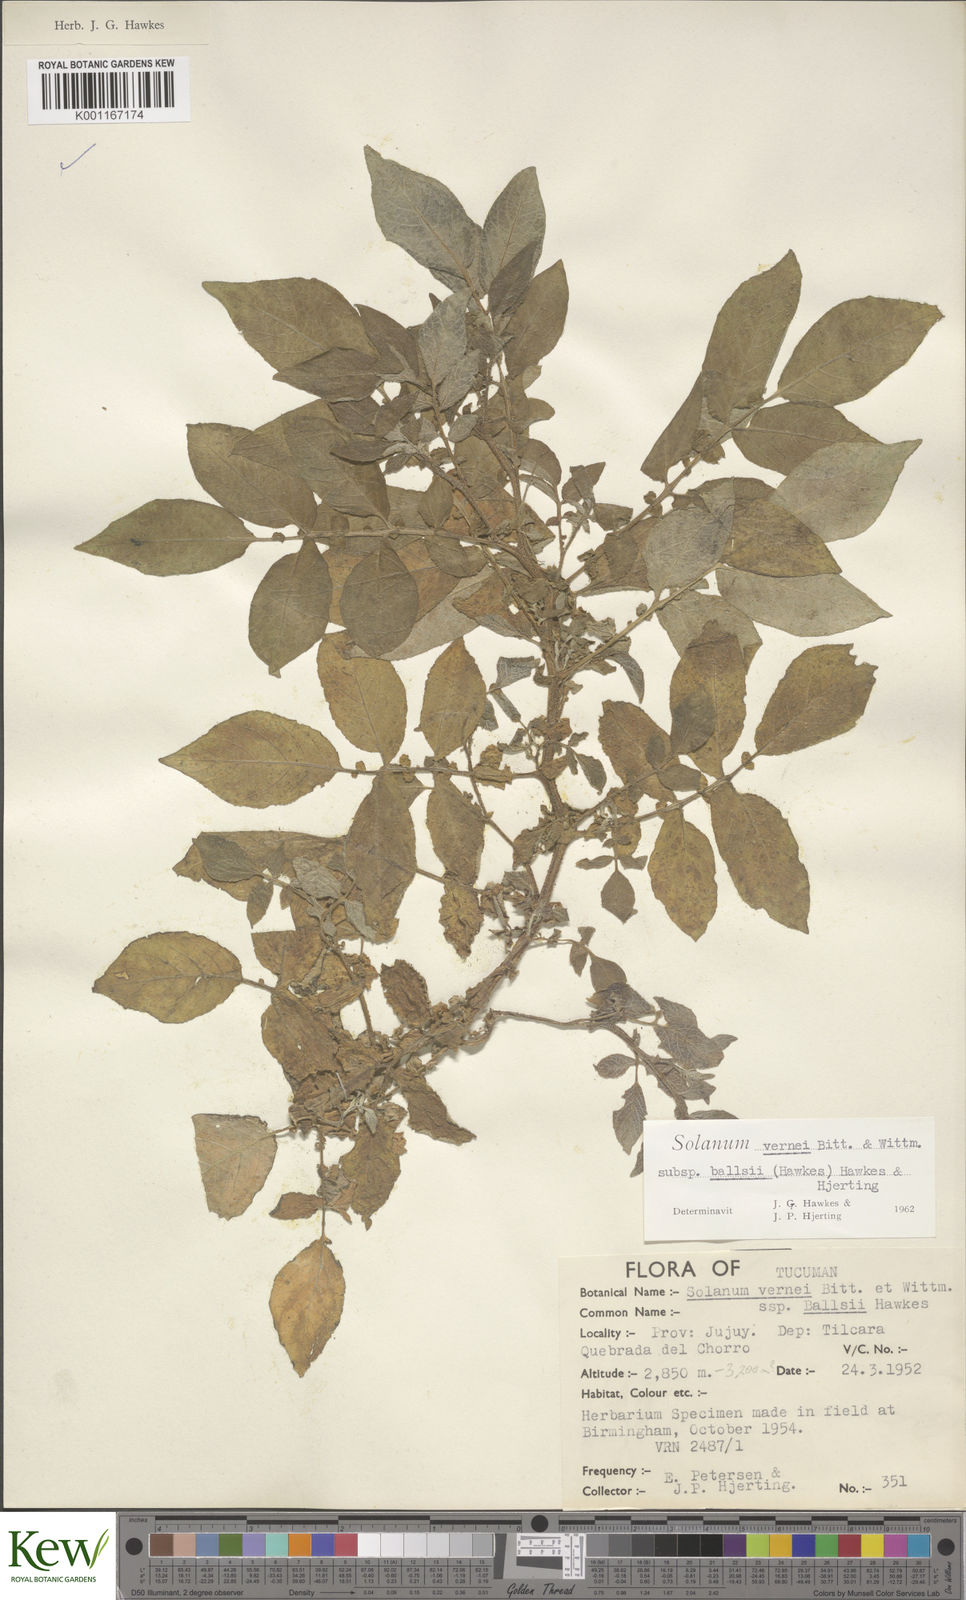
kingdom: Plantae
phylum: Tracheophyta
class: Magnoliopsida
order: Solanales
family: Solanaceae
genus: Solanum
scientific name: Solanum vernei
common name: Purple potato
